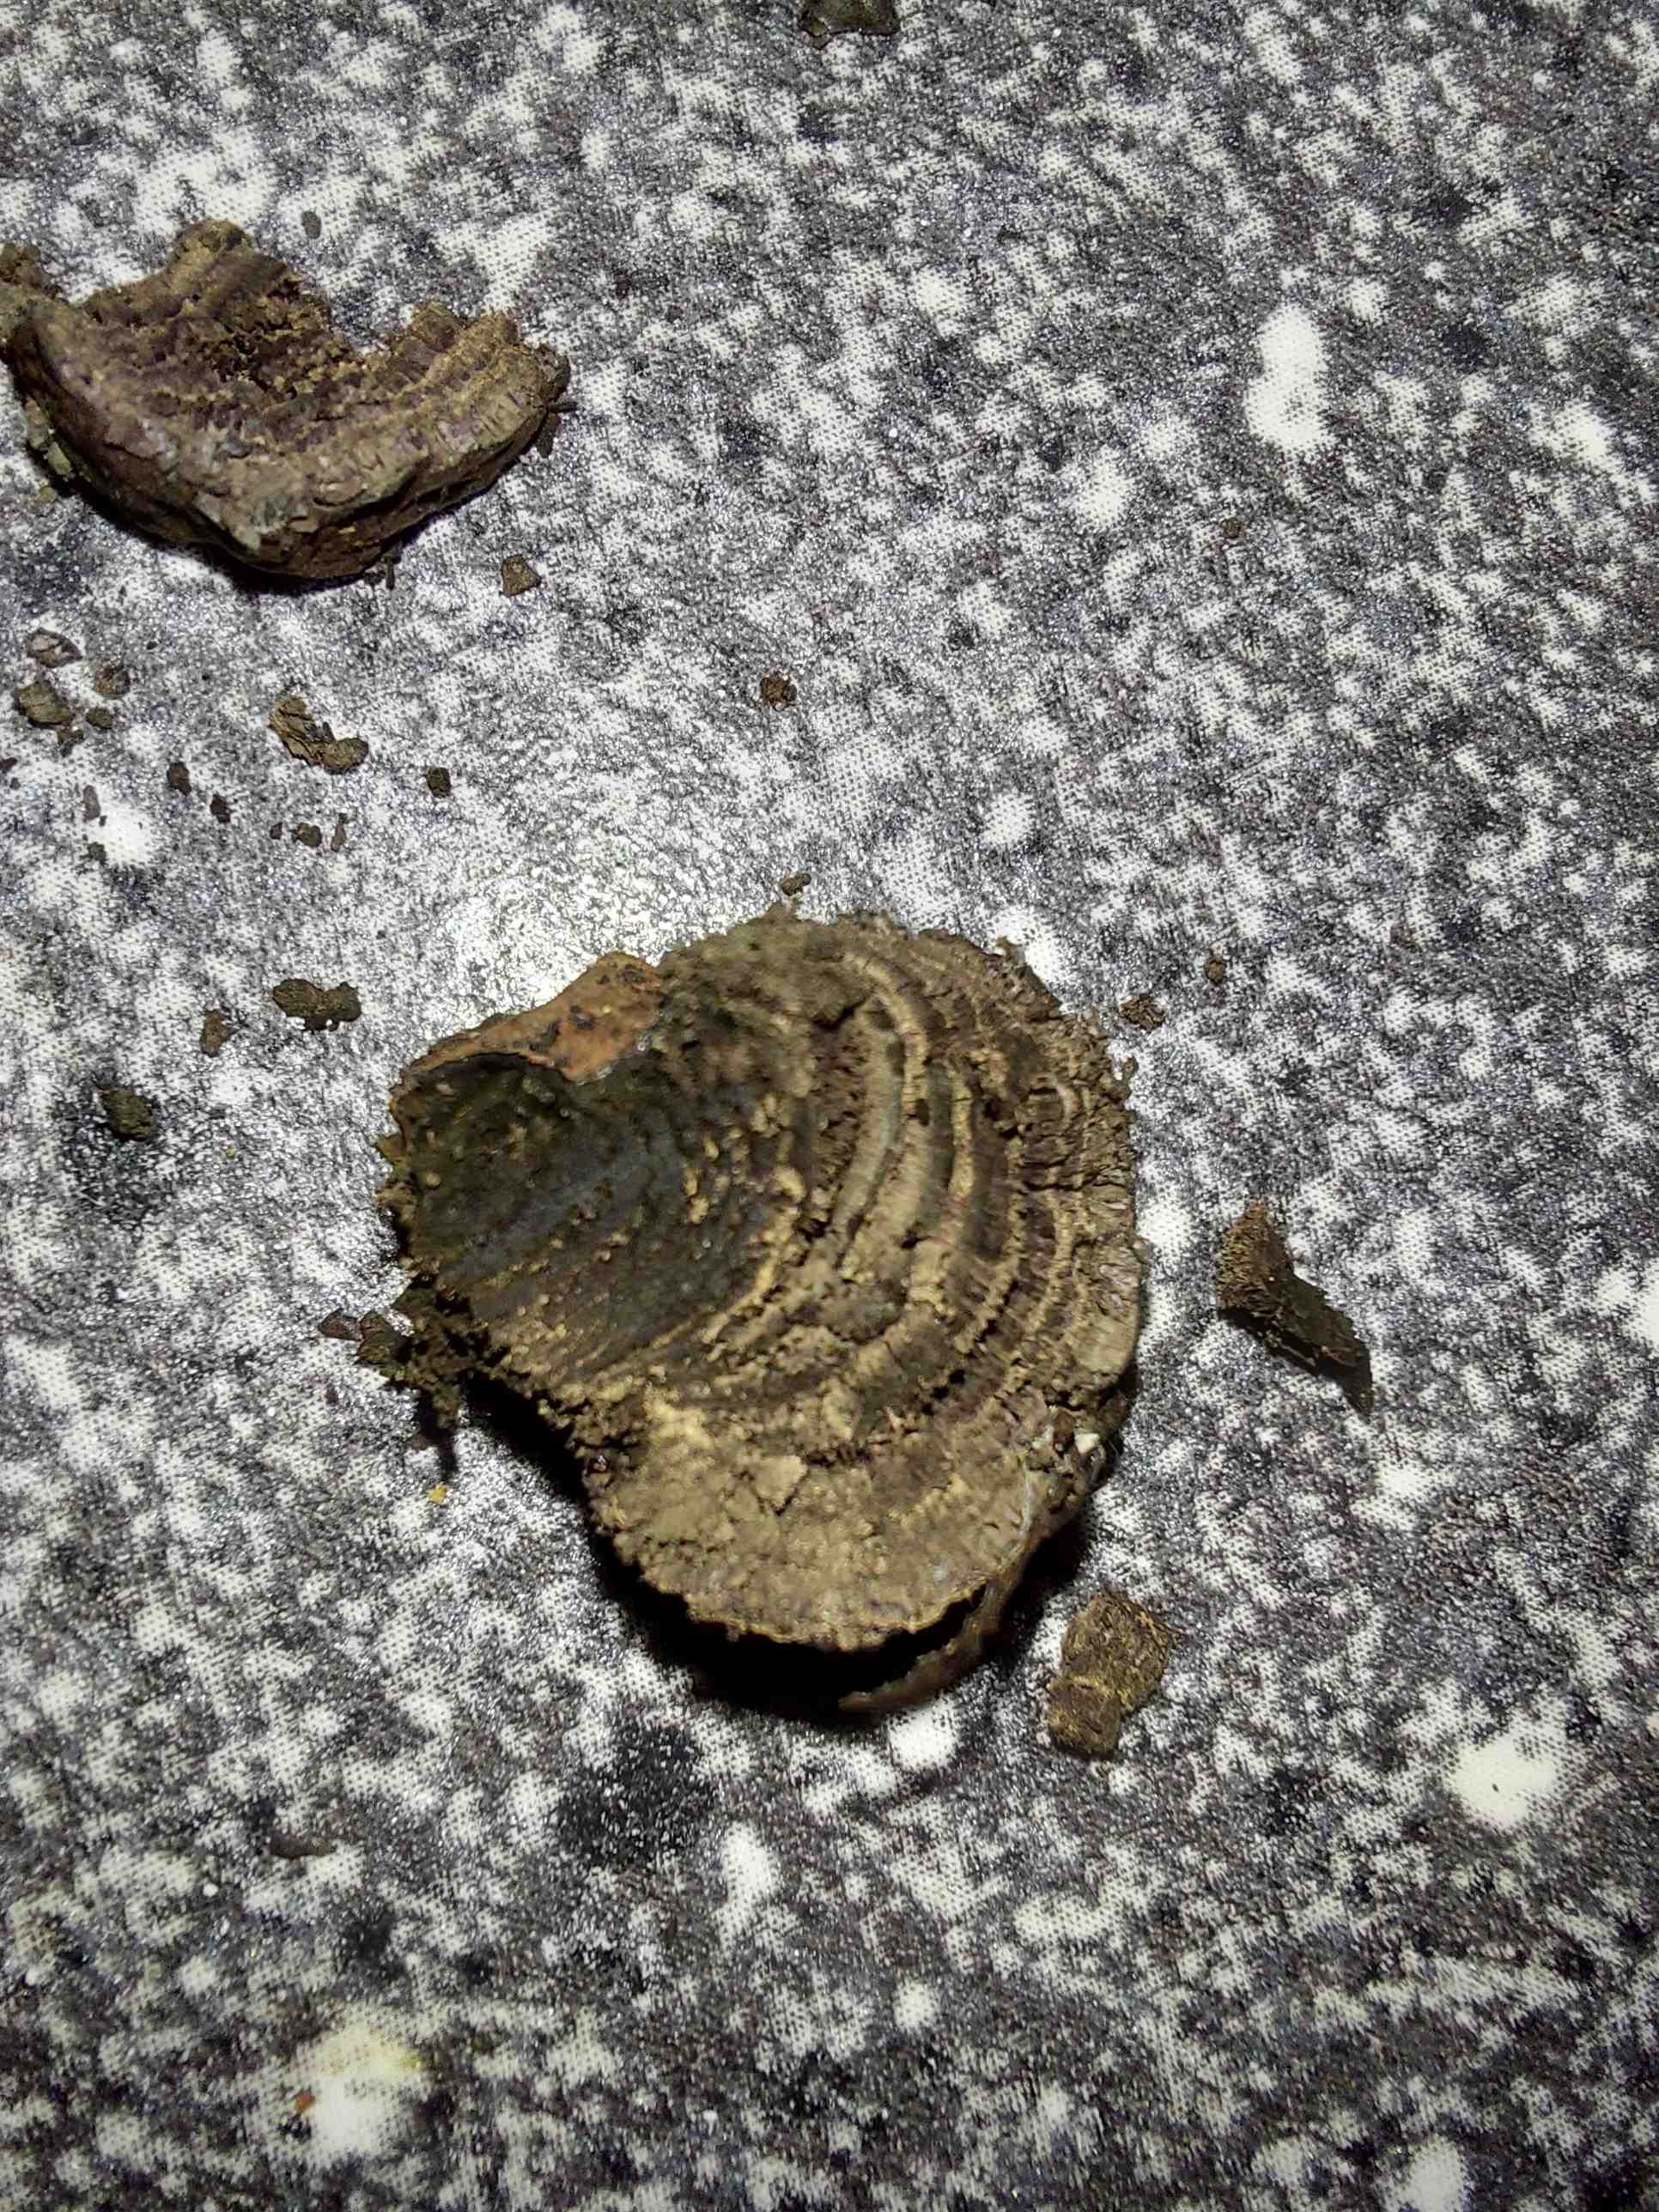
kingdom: Fungi
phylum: Ascomycota
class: Sordariomycetes
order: Xylariales
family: Hypoxylaceae
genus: Daldinia
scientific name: Daldinia
